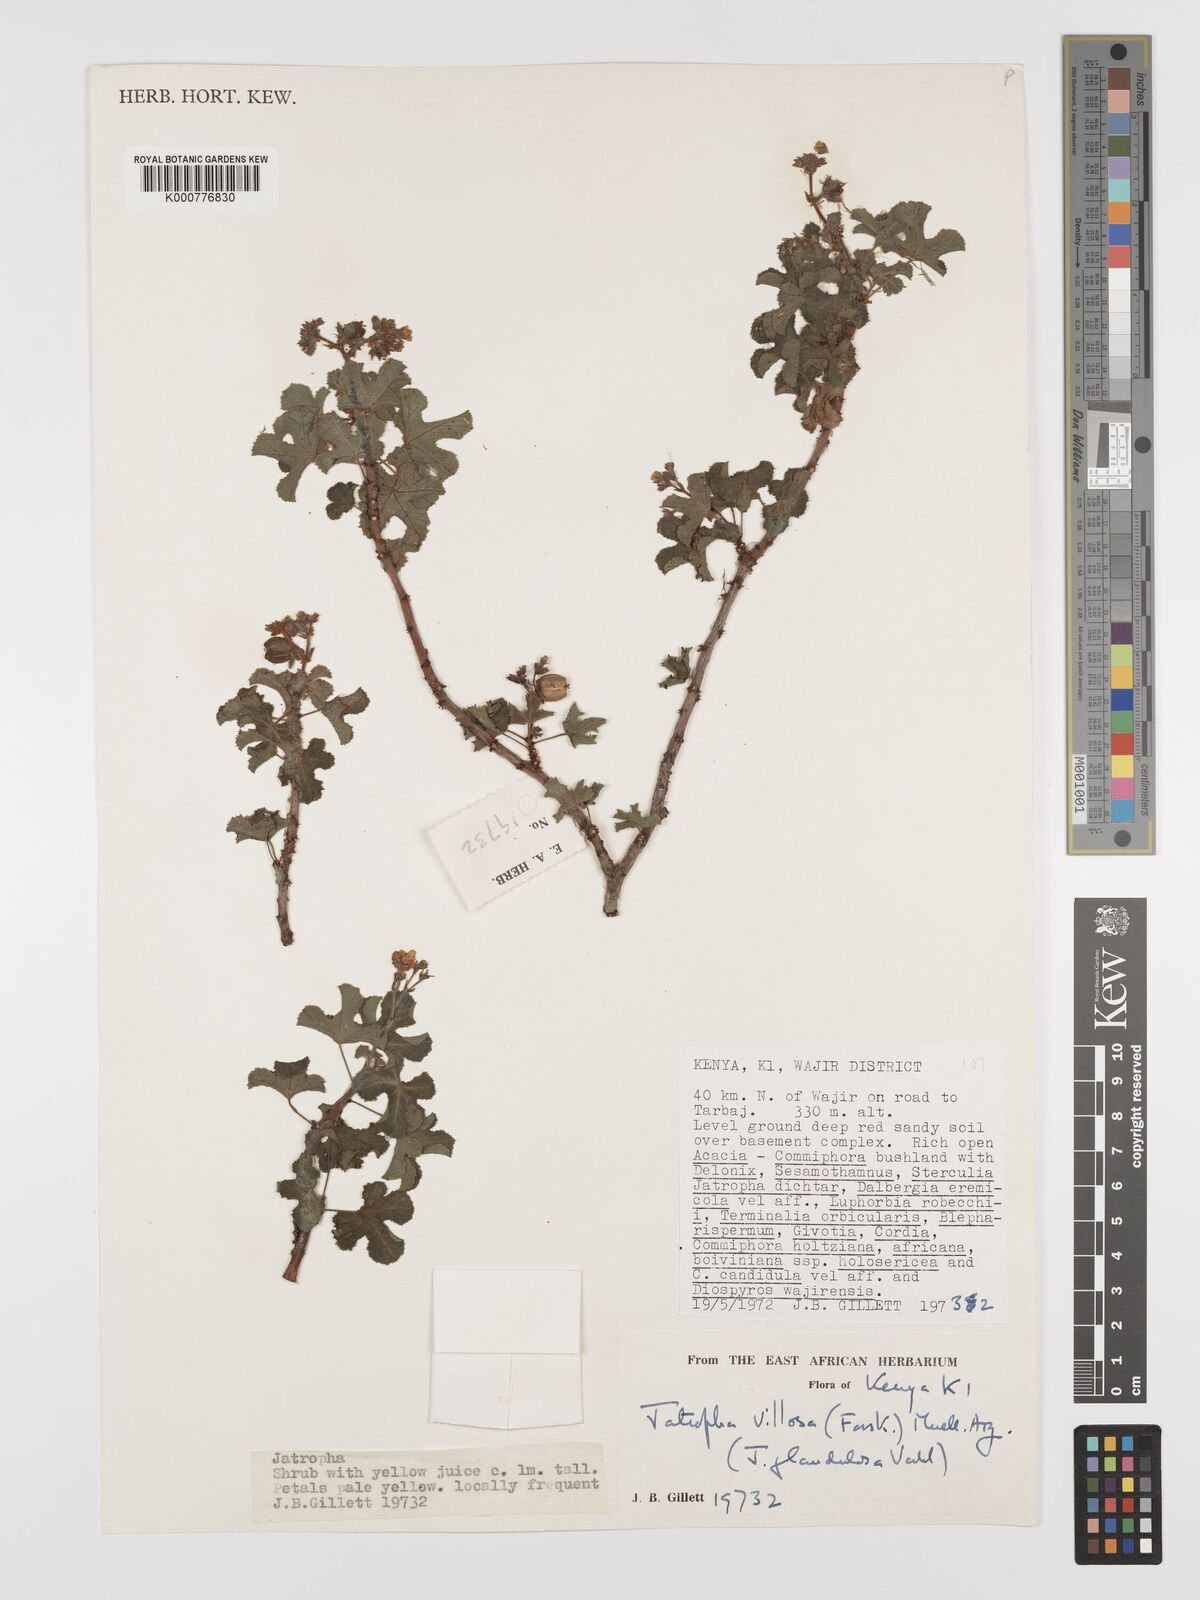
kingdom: Plantae
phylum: Tracheophyta
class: Magnoliopsida
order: Malpighiales
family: Euphorbiaceae
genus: Jatropha
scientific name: Jatropha pelargoniifolia
